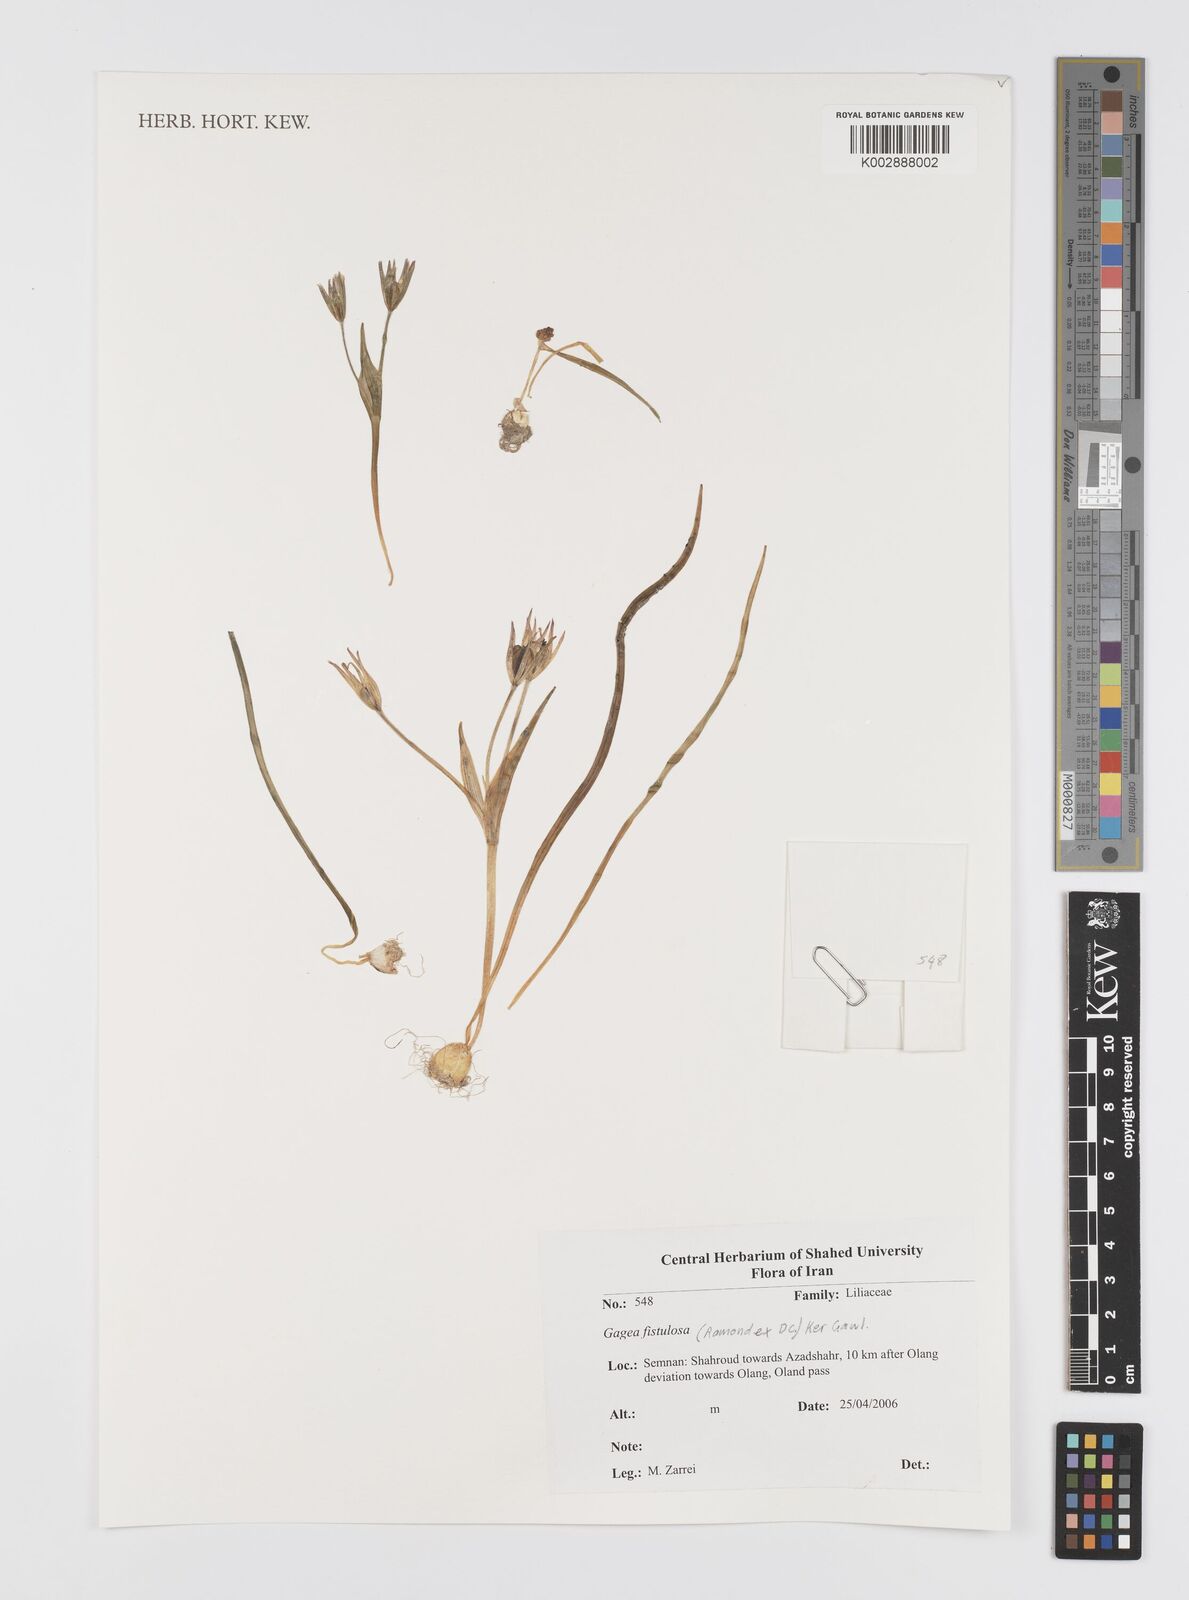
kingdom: Plantae
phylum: Tracheophyta
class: Liliopsida
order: Liliales
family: Liliaceae
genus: Gagea
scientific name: Gagea bohemica
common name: Early star-of-bethlehem
